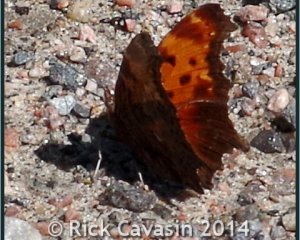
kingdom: Animalia
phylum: Arthropoda
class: Insecta
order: Lepidoptera
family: Nymphalidae
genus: Polygonia
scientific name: Polygonia progne
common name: Gray Comma
